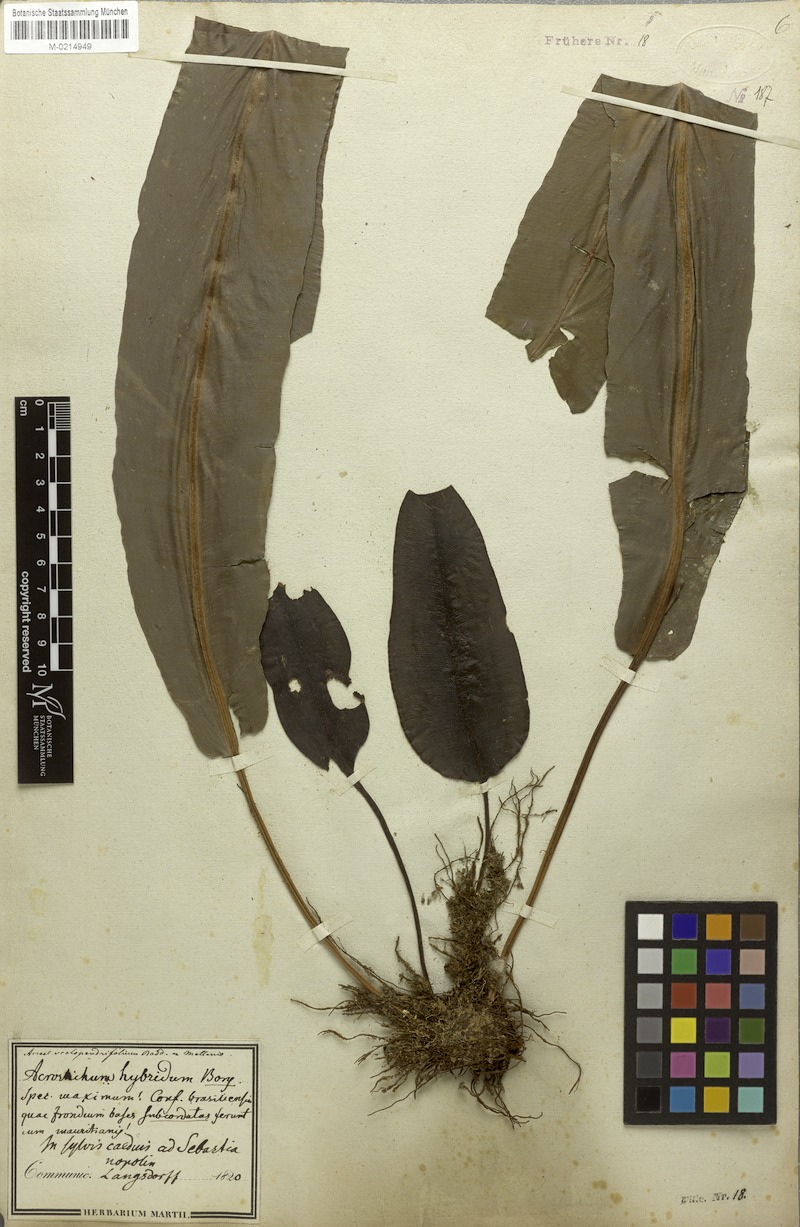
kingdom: Plantae
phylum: Tracheophyta
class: Polypodiopsida
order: Polypodiales
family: Dryopteridaceae
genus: Elaphoglossum
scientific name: Elaphoglossum hybridum
